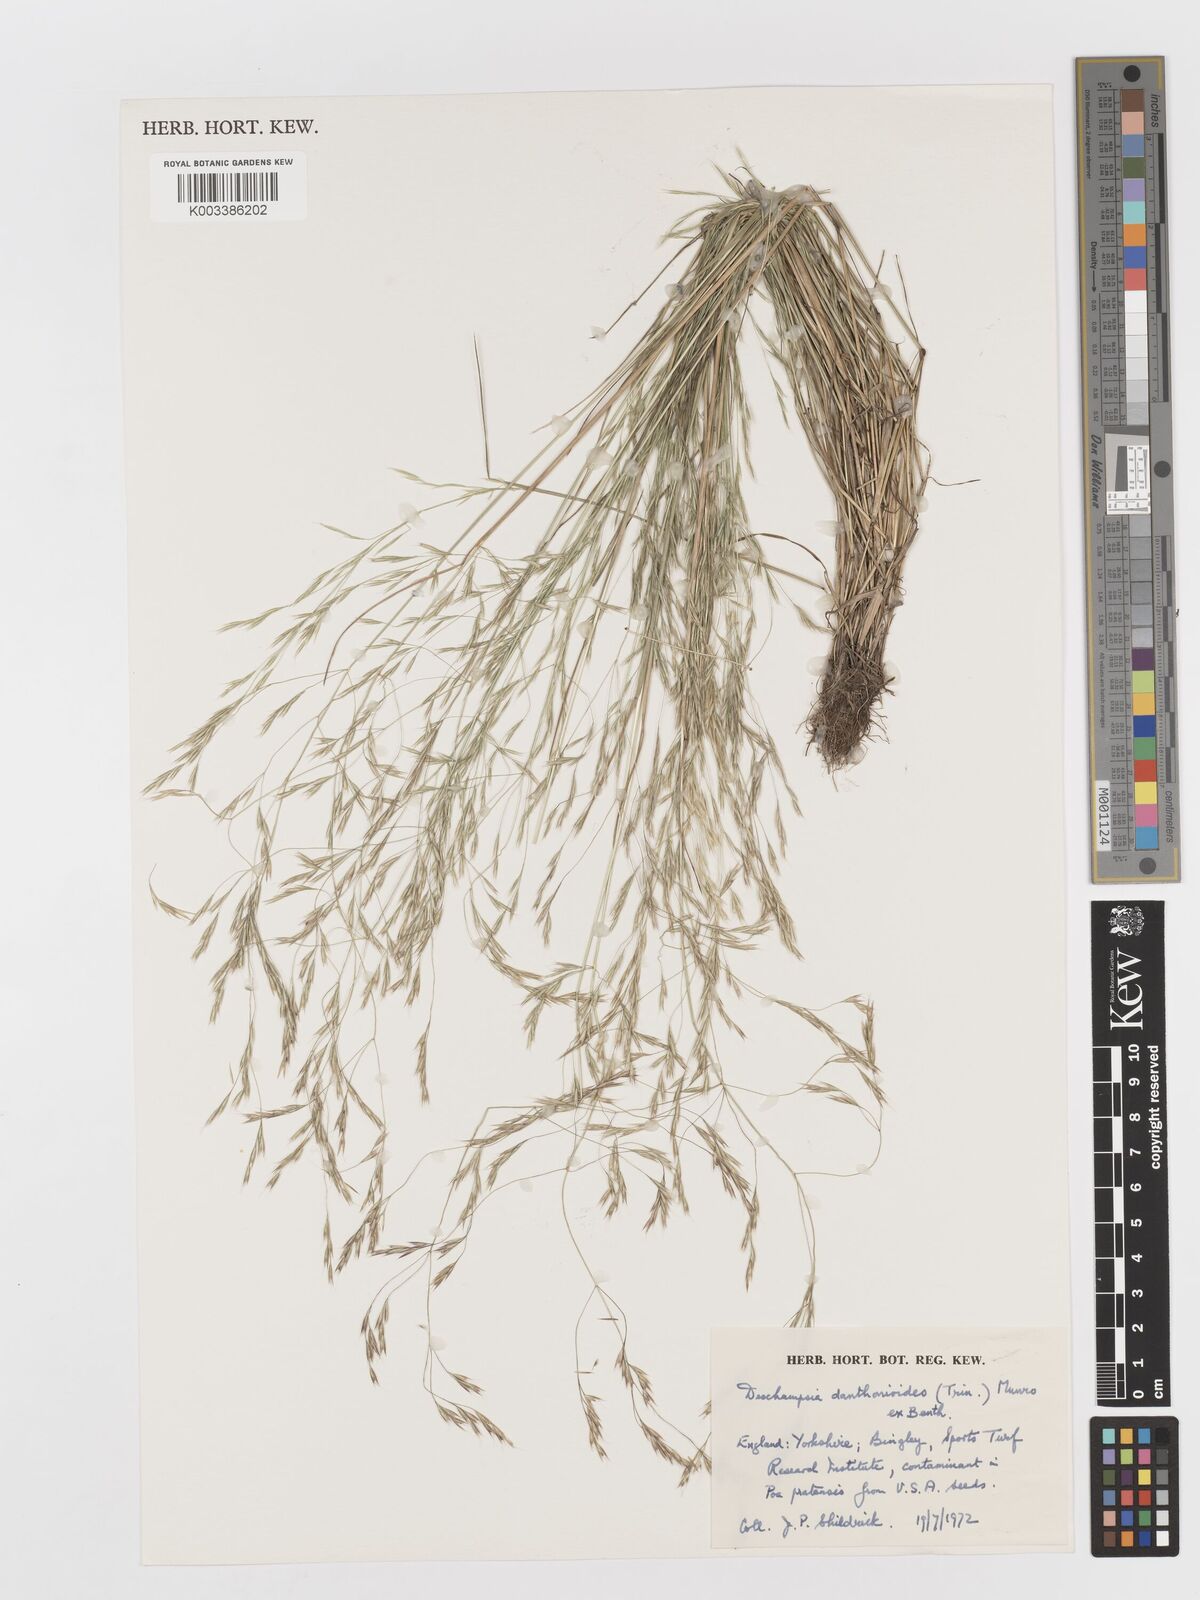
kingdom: Plantae
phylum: Tracheophyta
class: Liliopsida
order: Poales
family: Poaceae
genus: Deschampsia
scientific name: Deschampsia danthonioides
